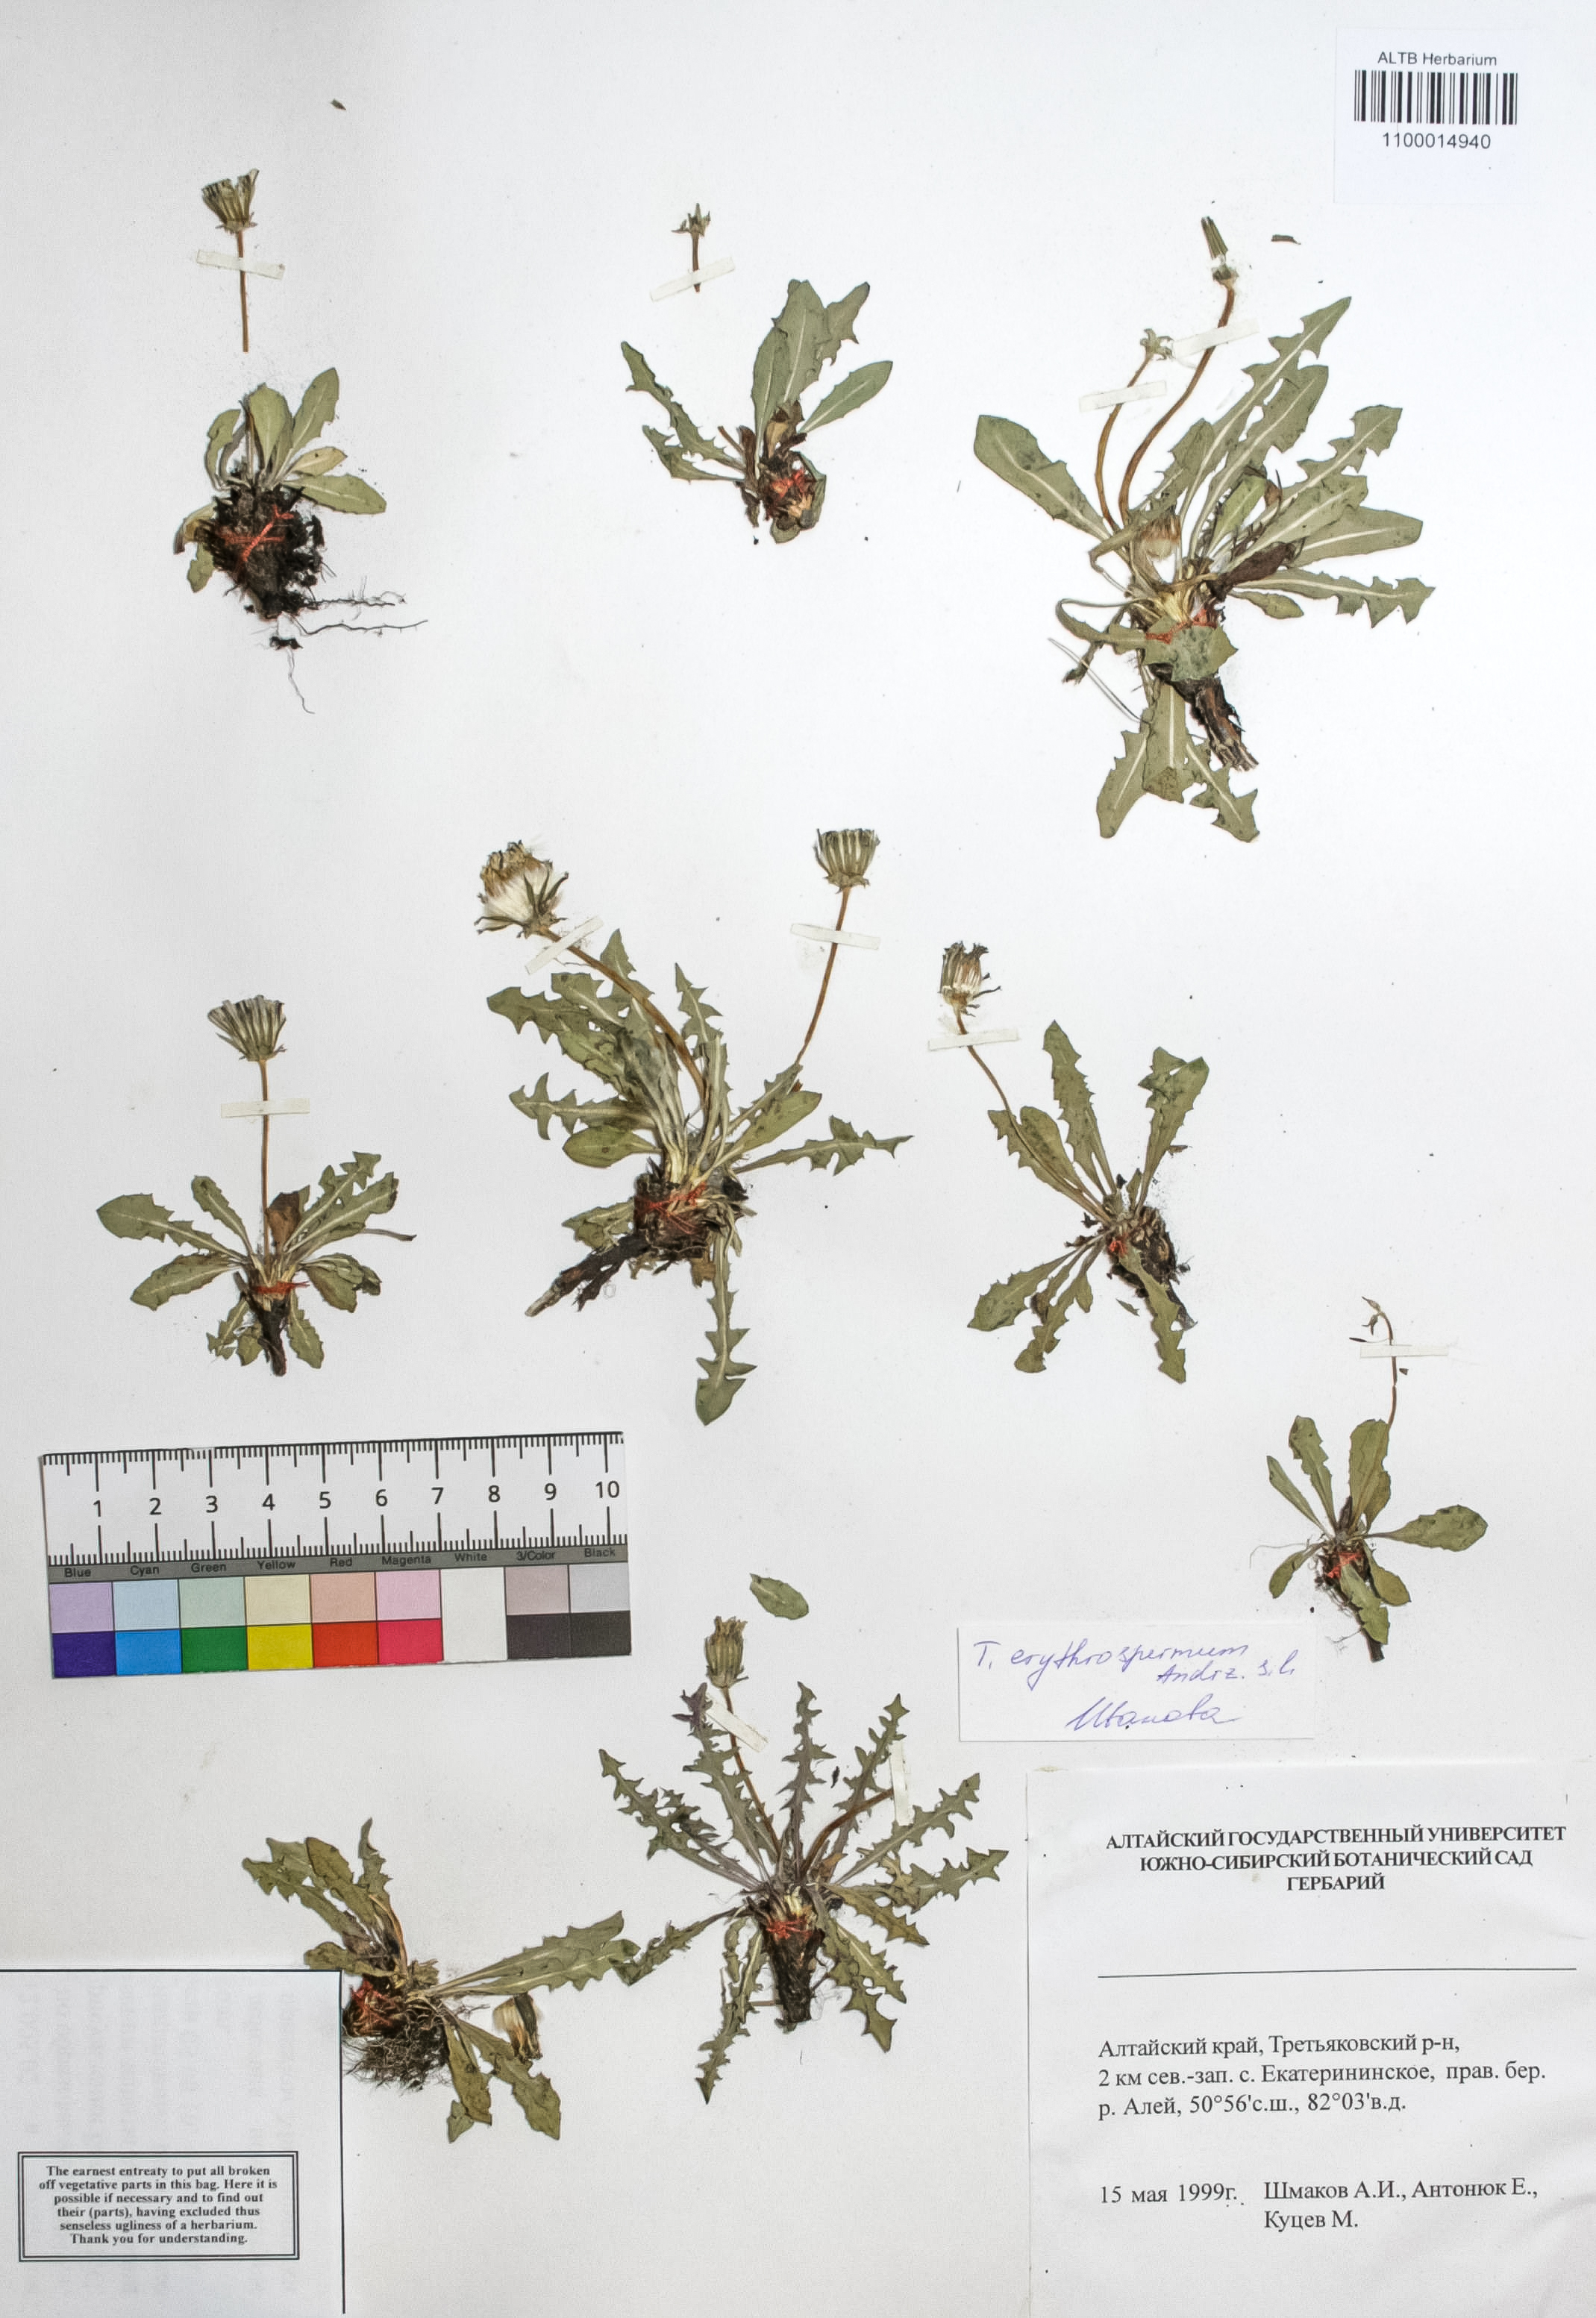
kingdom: Plantae
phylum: Tracheophyta
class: Magnoliopsida
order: Asterales
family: Asteraceae
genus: Taraxacum
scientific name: Taraxacum erythrospermum
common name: Rock dandelion
